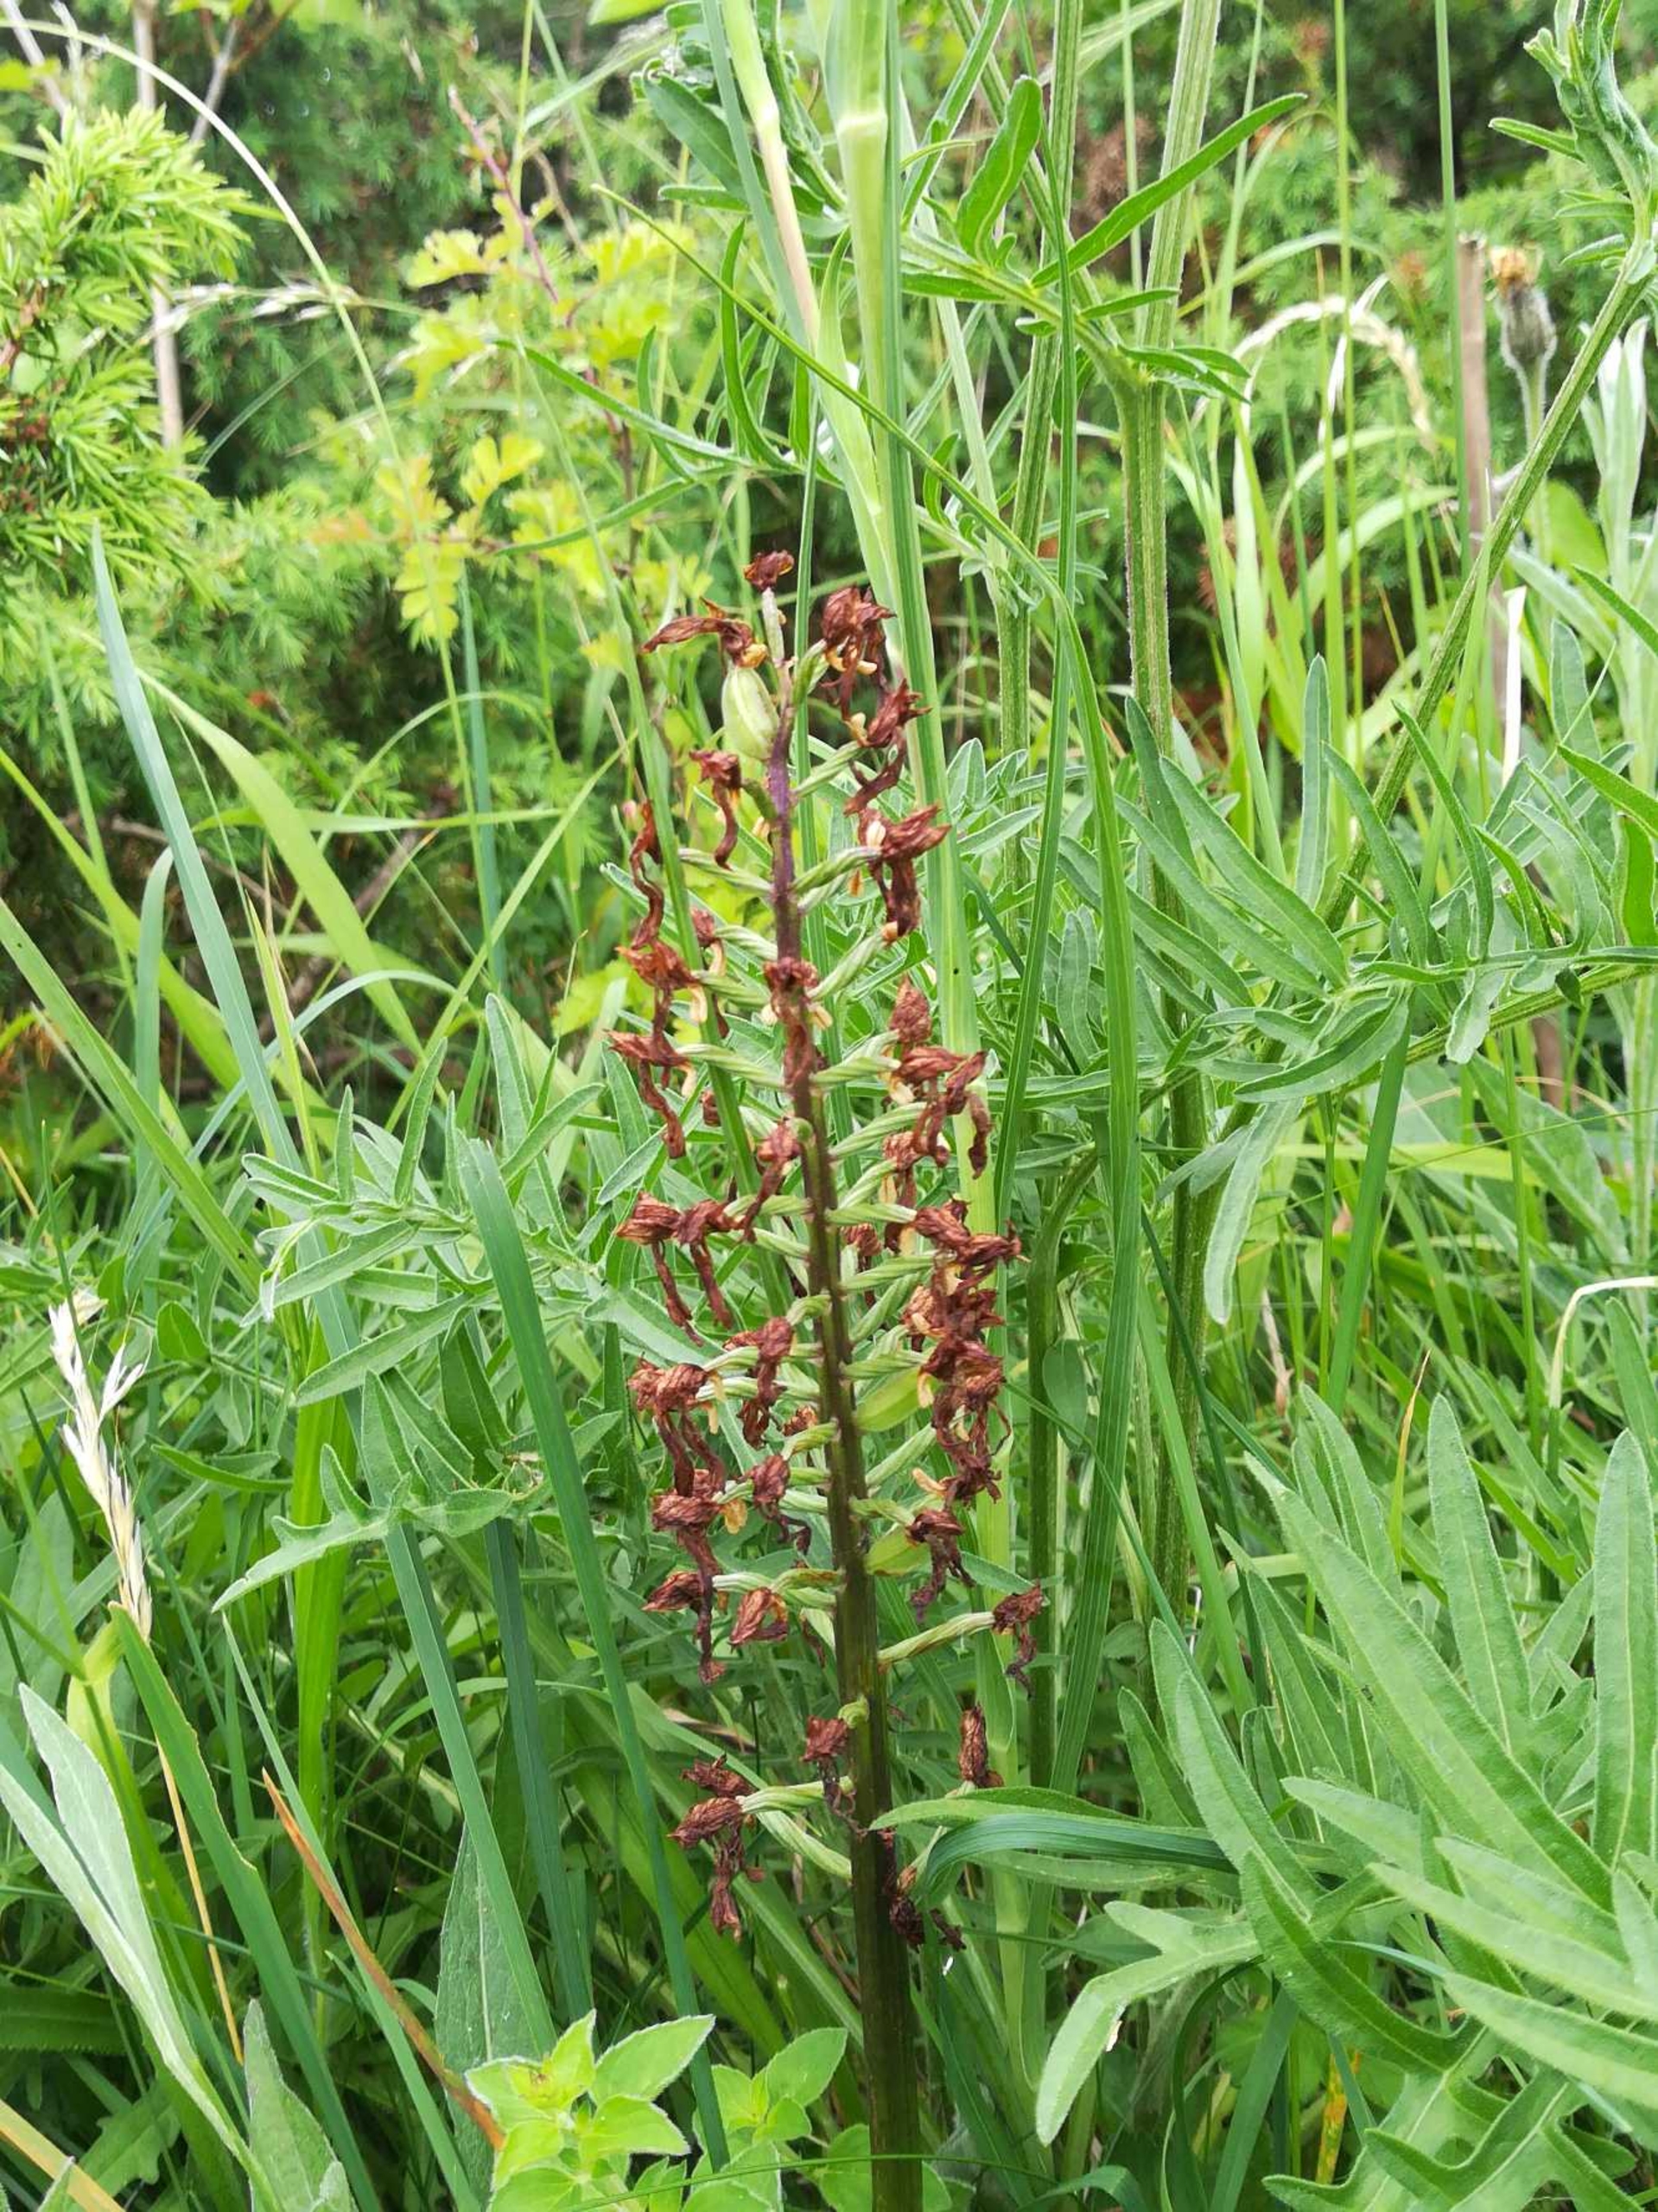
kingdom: Plantae
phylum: Tracheophyta
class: Liliopsida
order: Asparagales
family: Orchidaceae
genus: Orchis
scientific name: Orchis purpurea
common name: Stor gøgeurt
